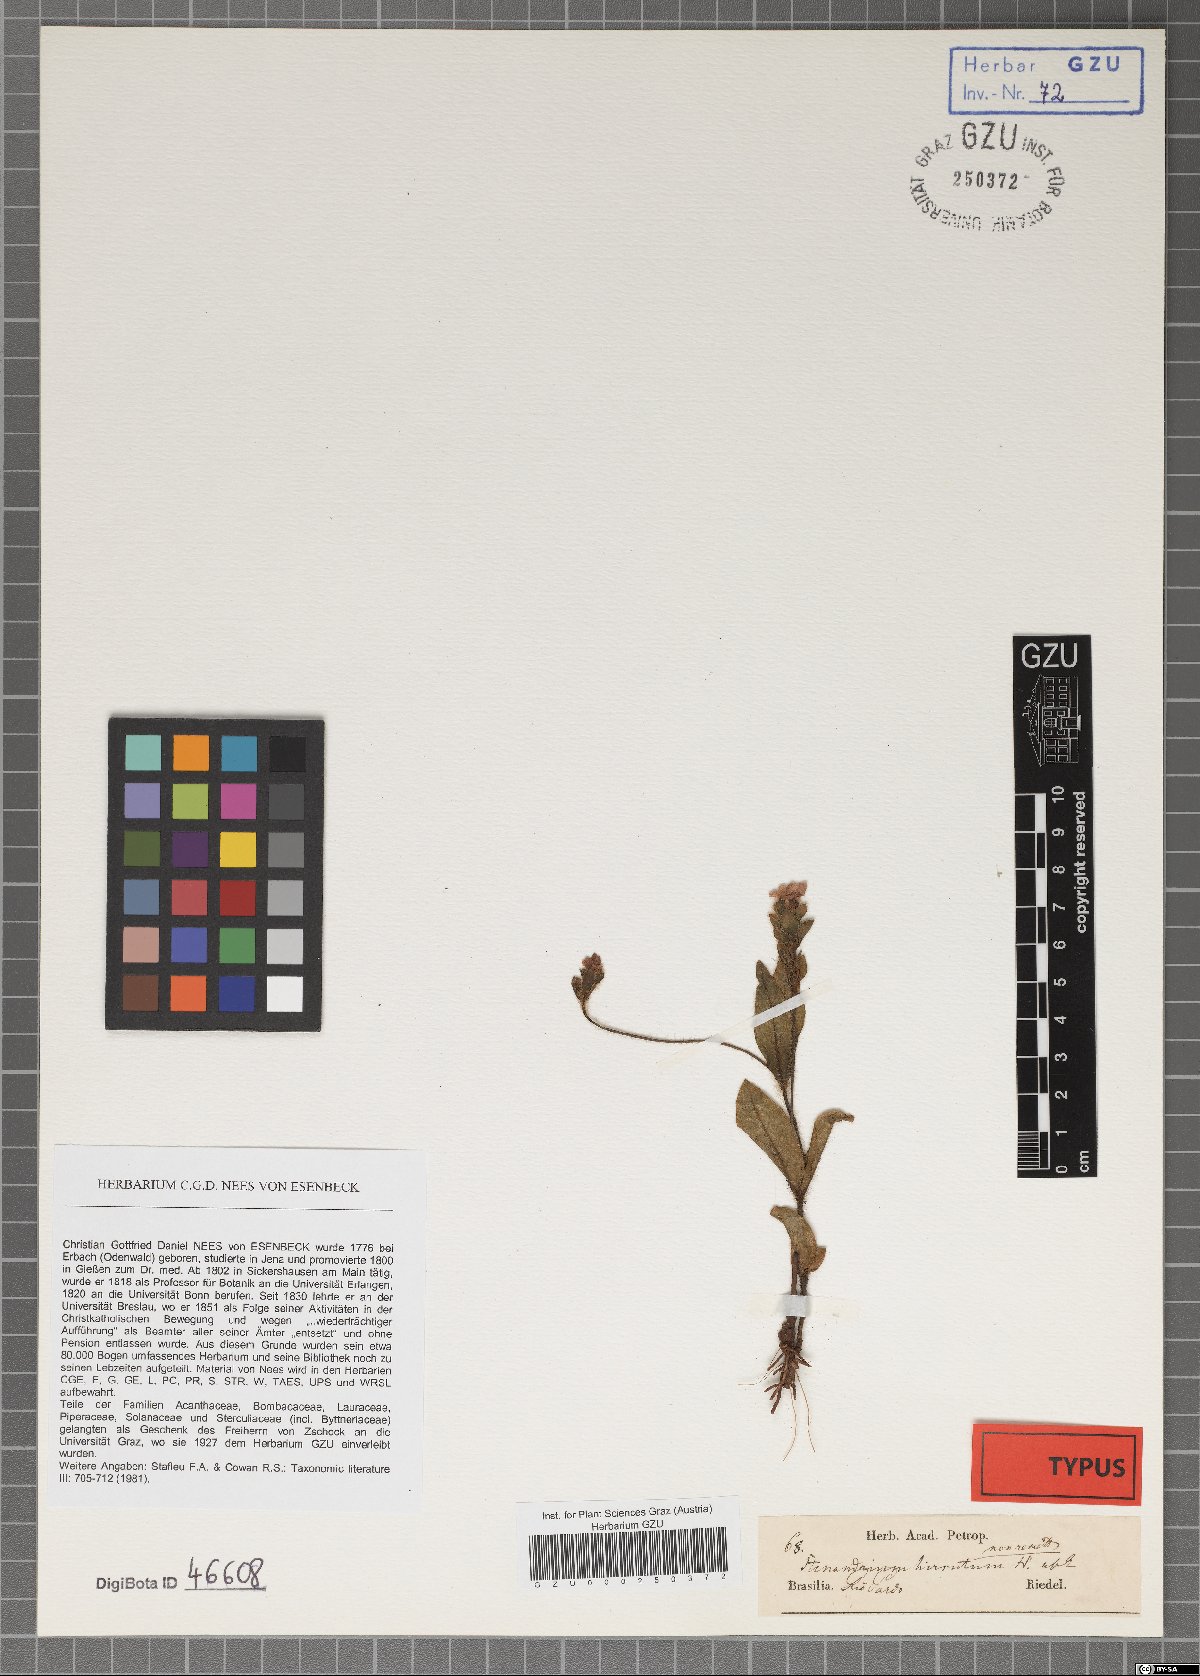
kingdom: Plantae
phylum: Tracheophyta
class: Magnoliopsida
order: Lamiales
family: Acanthaceae
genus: Stenandrium
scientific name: Stenandrium hirsutum
